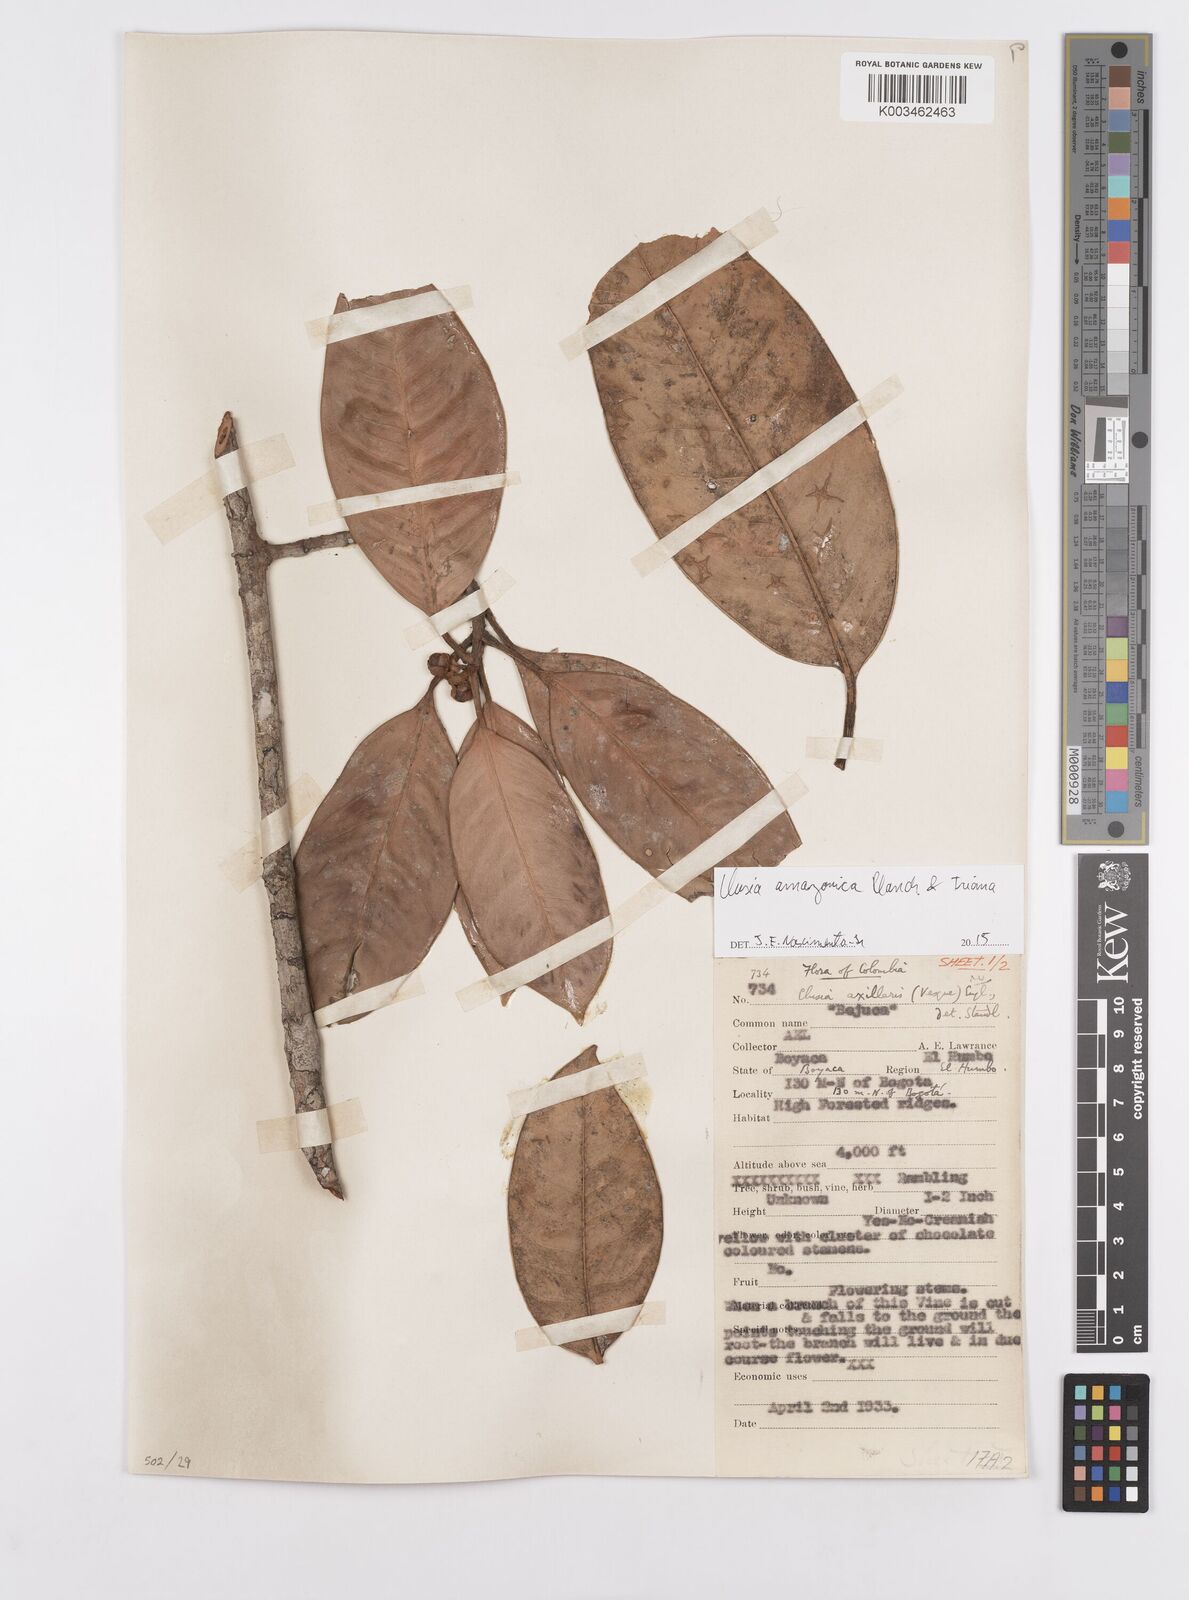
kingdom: Plantae
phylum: Tracheophyta
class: Magnoliopsida
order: Malpighiales
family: Clusiaceae
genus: Clusia
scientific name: Clusia amazonica
